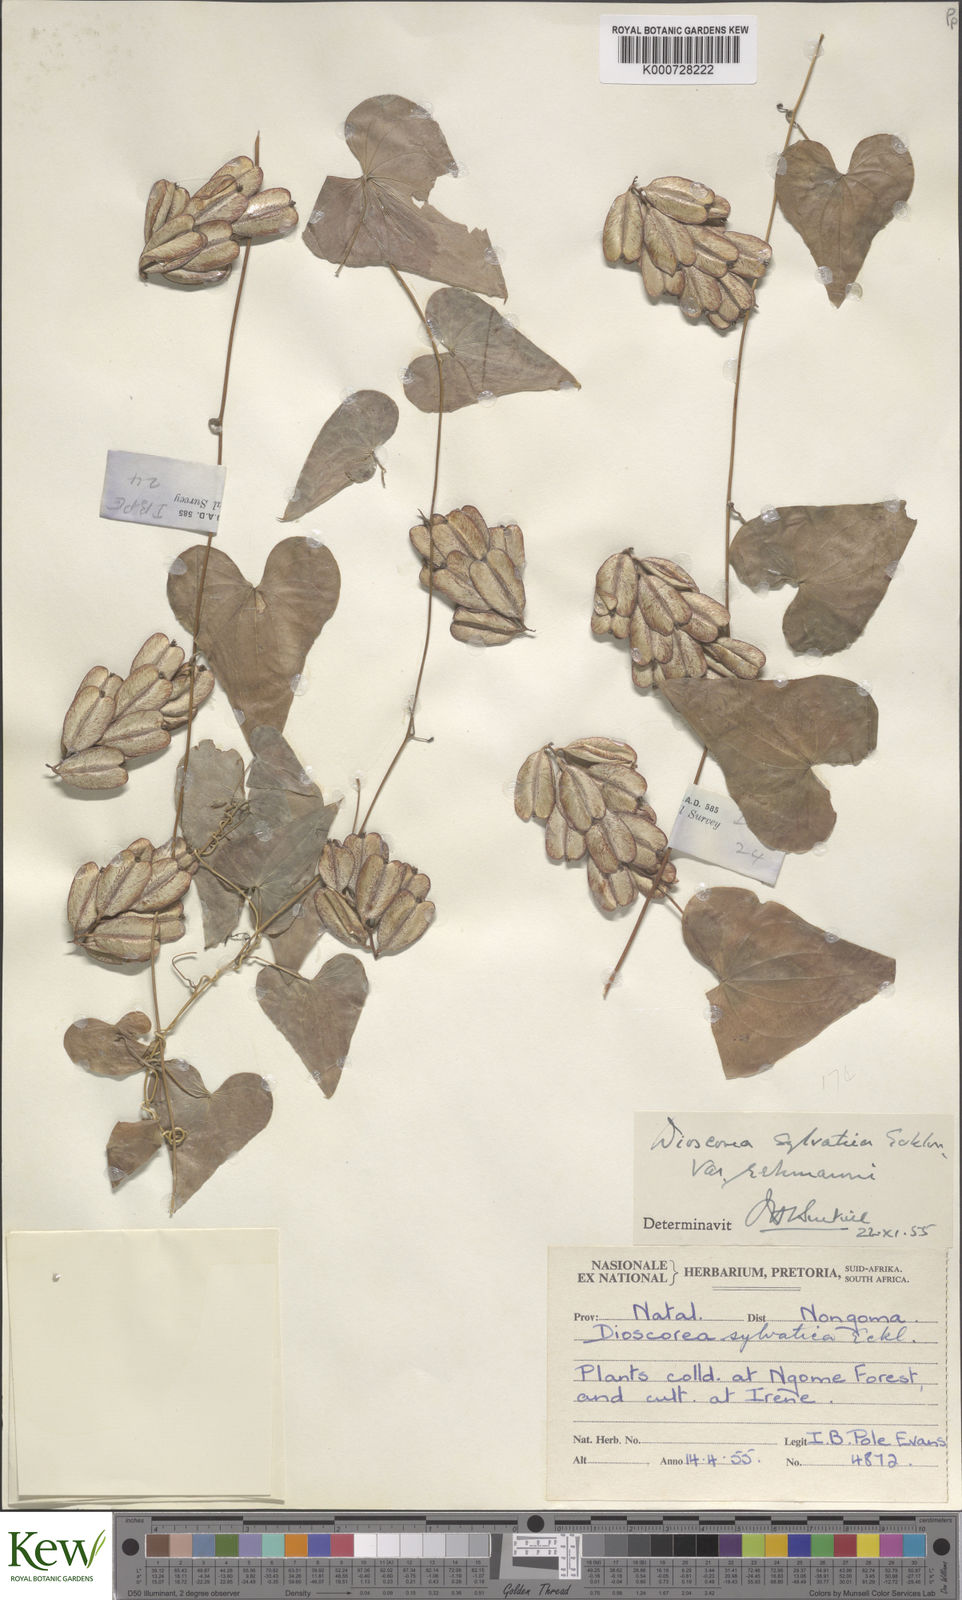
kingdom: Plantae
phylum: Tracheophyta
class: Liliopsida
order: Dioscoreales
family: Dioscoreaceae
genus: Dioscorea
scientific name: Dioscorea sylvatica
